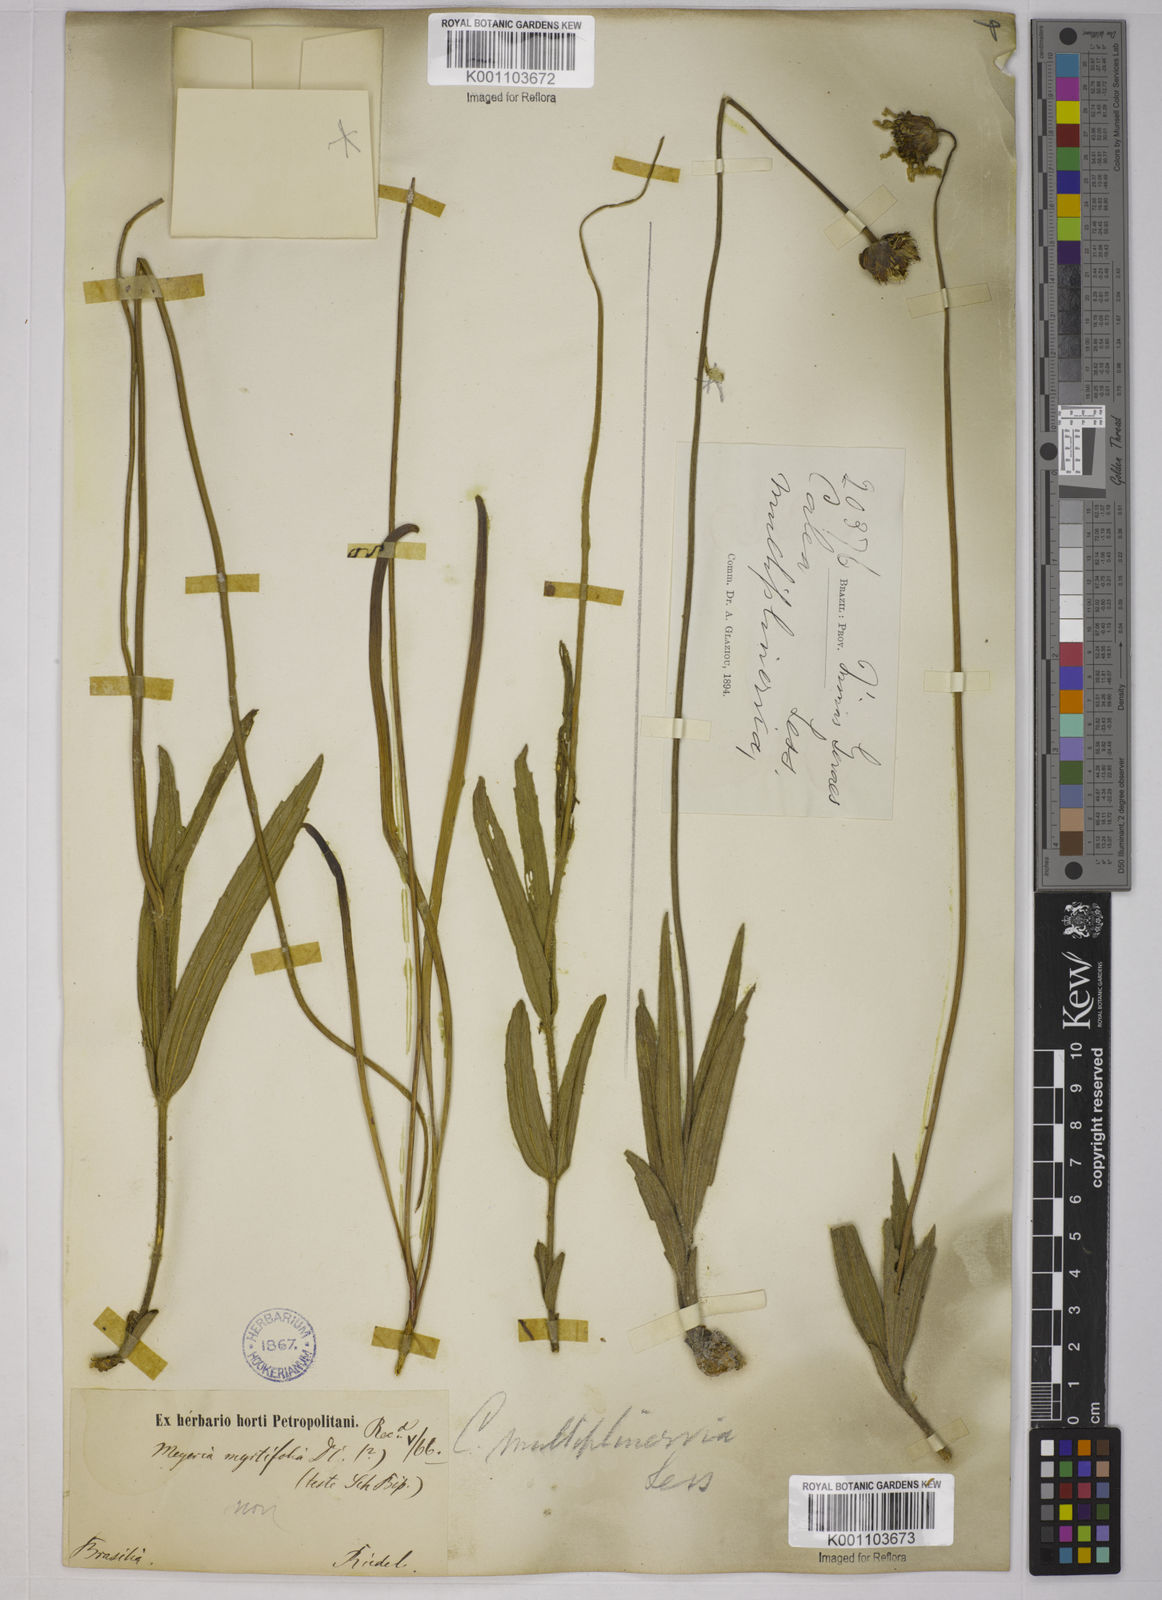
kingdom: Plantae
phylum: Tracheophyta
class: Magnoliopsida
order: Asterales
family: Asteraceae
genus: Calea
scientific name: Calea multiplinervia
